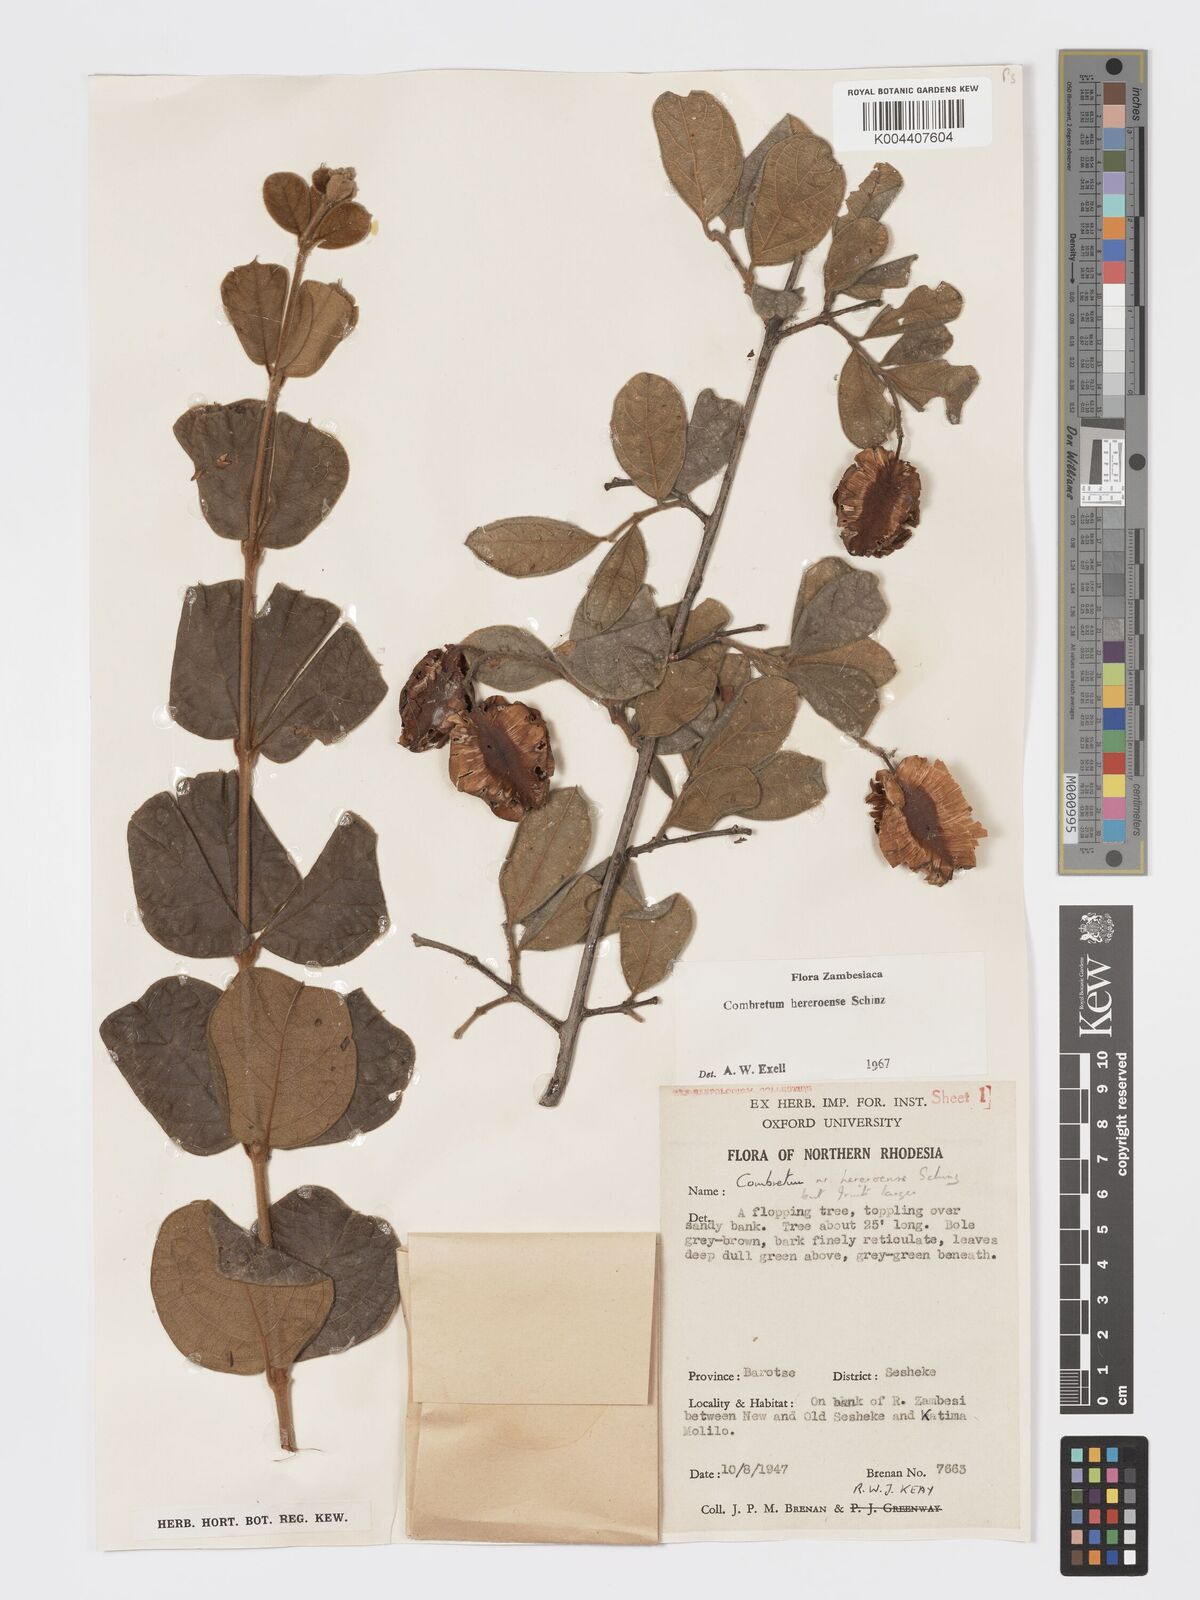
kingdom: Plantae
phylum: Tracheophyta
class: Magnoliopsida
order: Myrtales
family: Combretaceae
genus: Combretum
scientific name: Combretum hereroense
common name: Russet bushwillow
